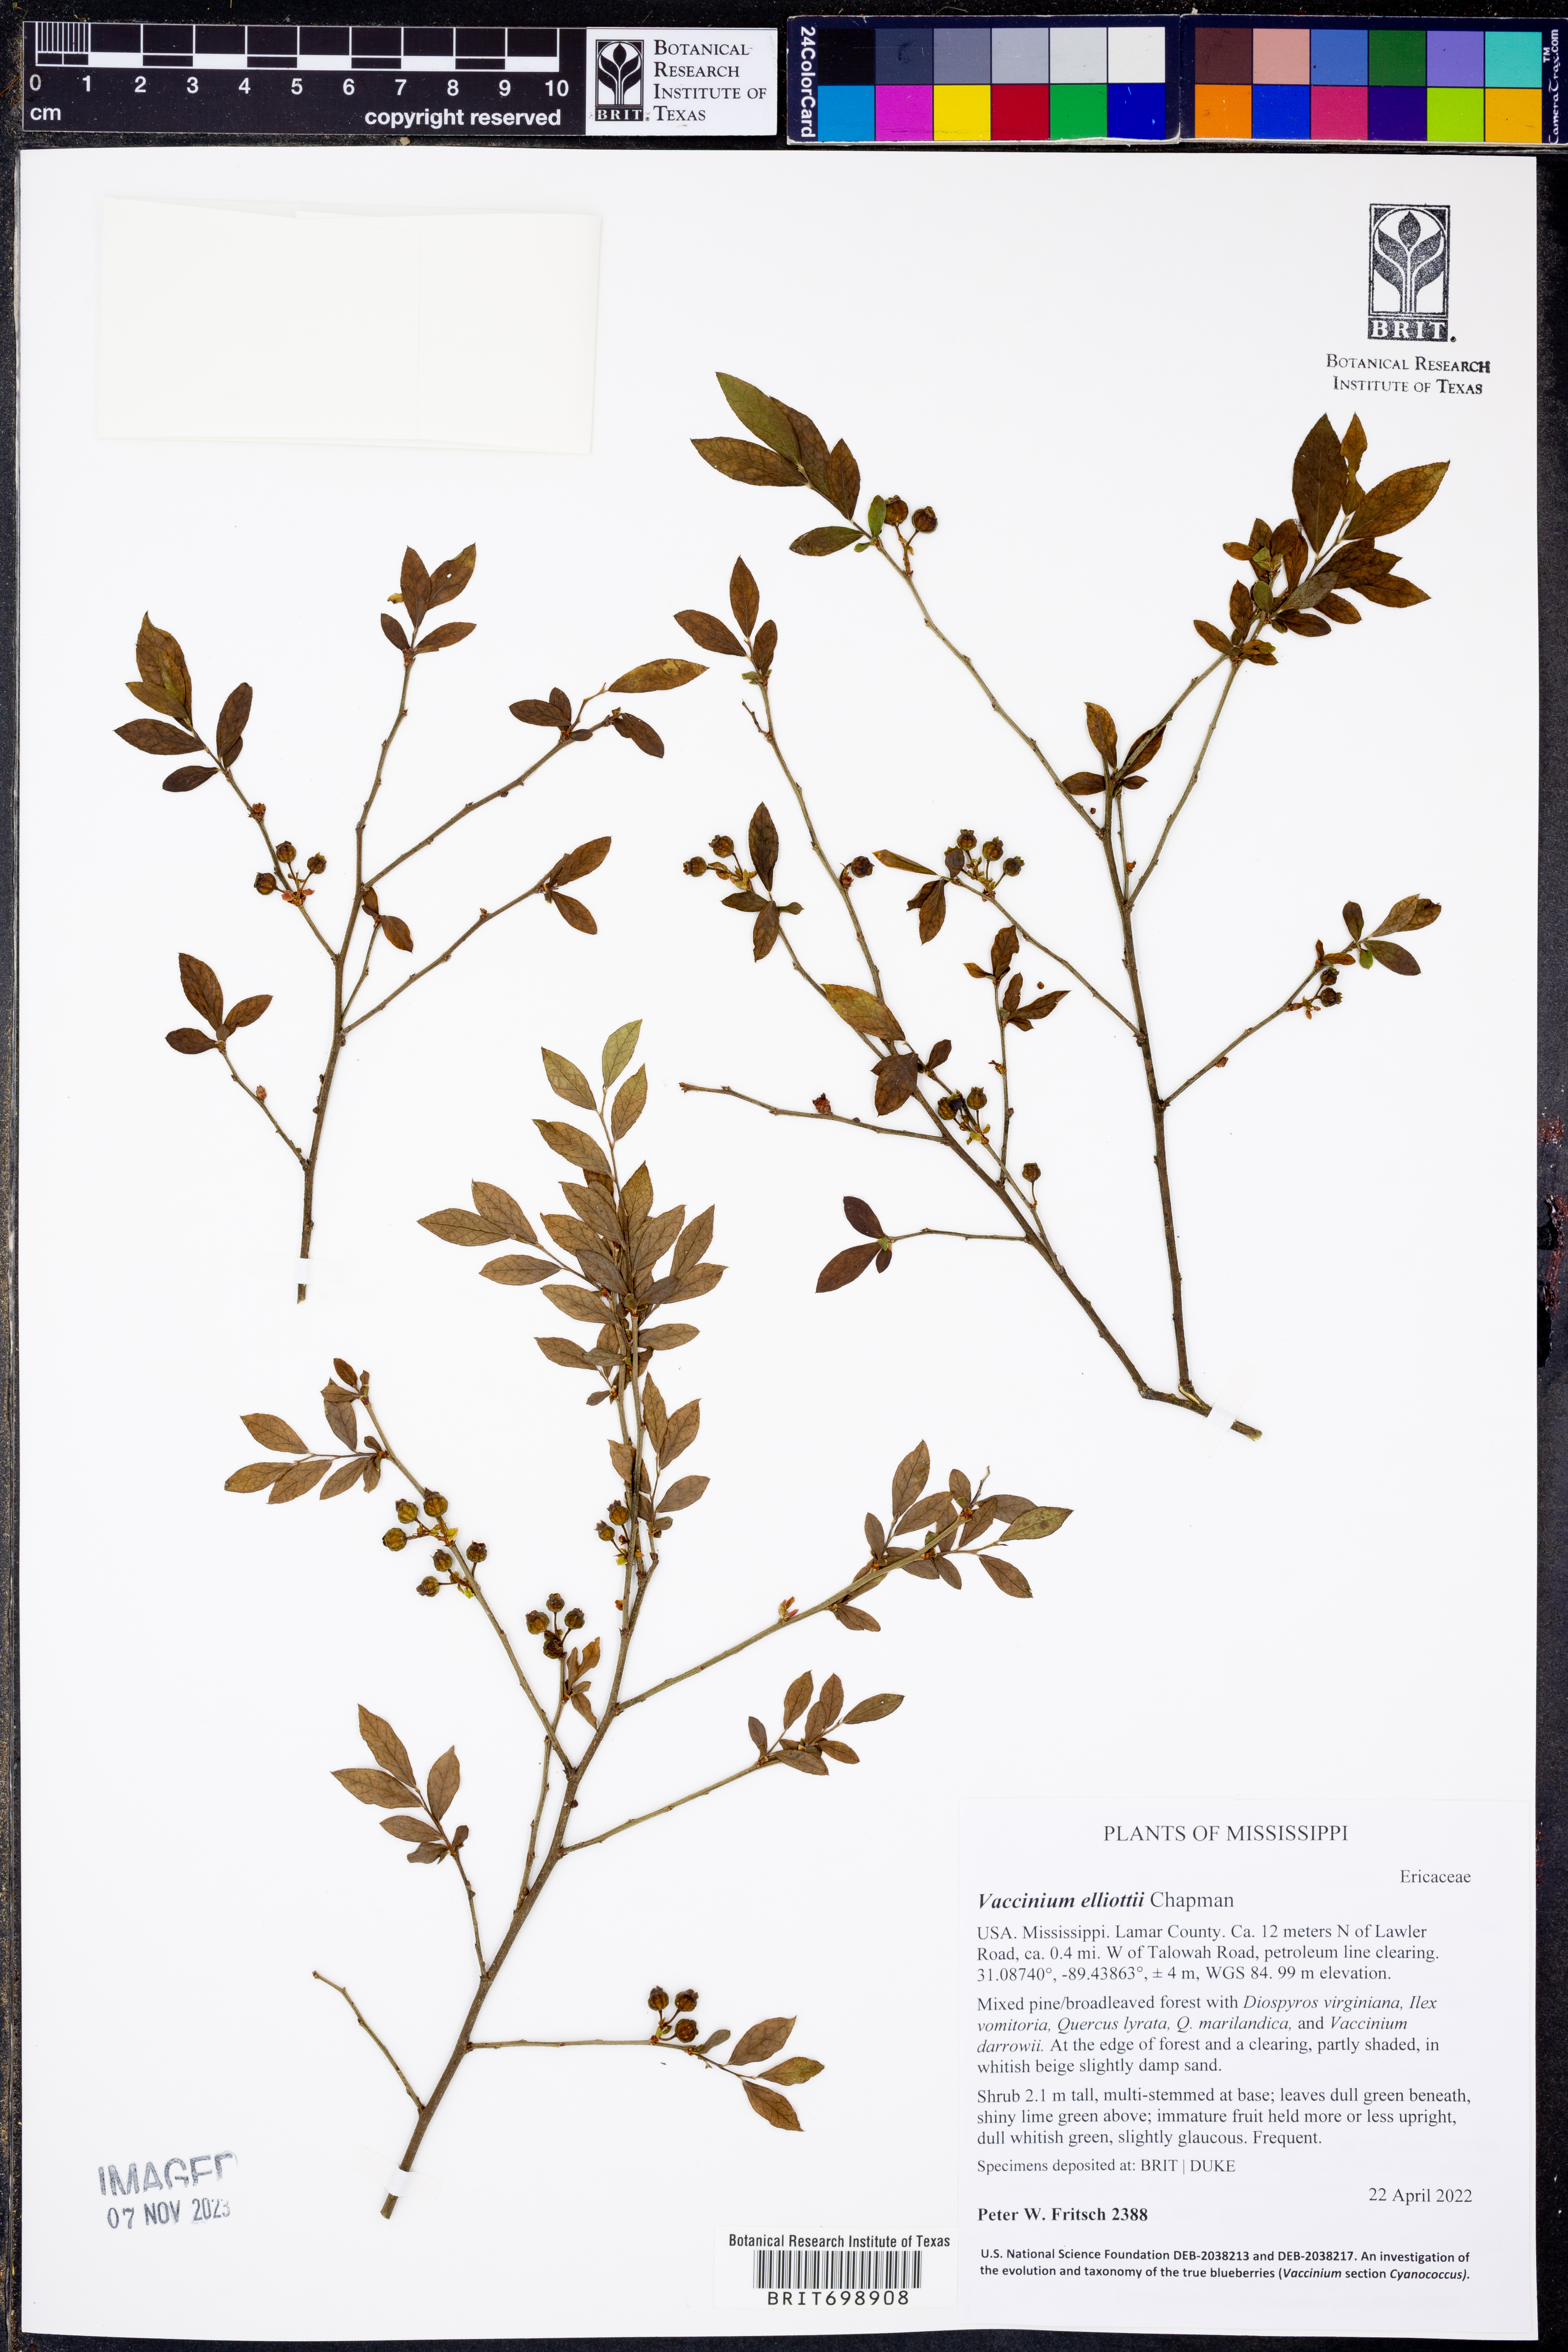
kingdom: Plantae
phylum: Tracheophyta
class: Magnoliopsida
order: Ericales
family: Ericaceae
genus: Vaccinium
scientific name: Vaccinium corymbosum
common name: Blueberry
